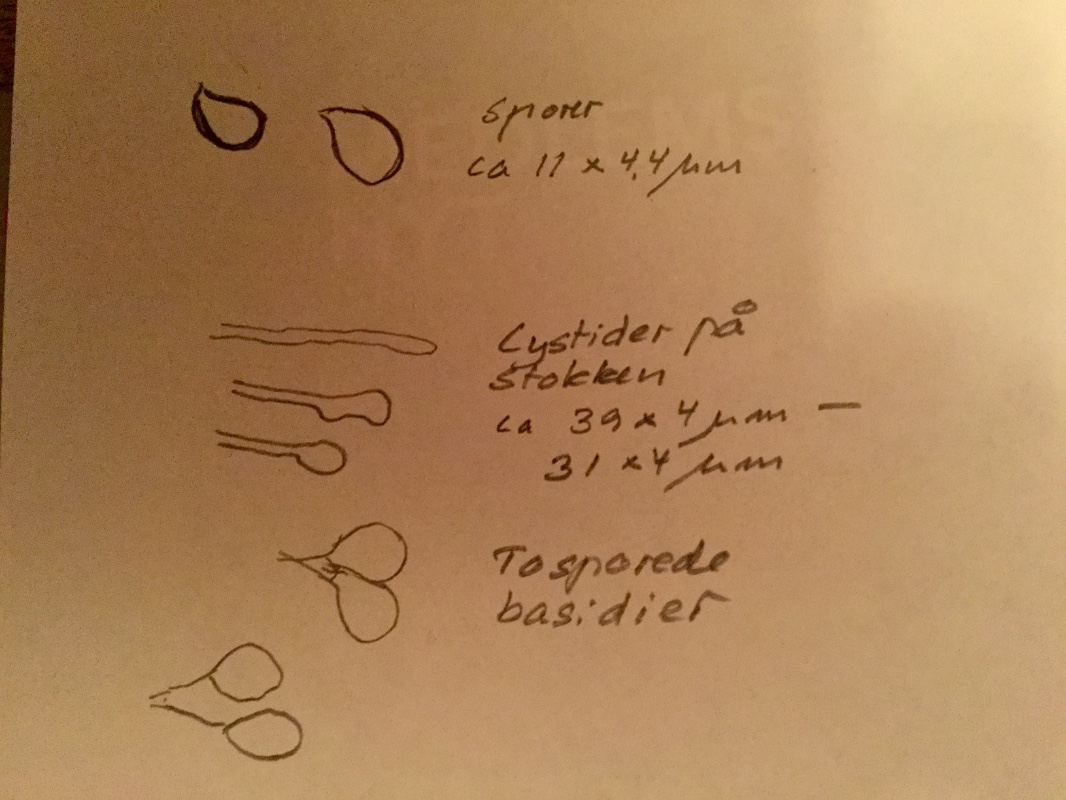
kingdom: Fungi
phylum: Basidiomycota
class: Agaricomycetes
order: Agaricales
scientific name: Agaricales
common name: champignonordenen
